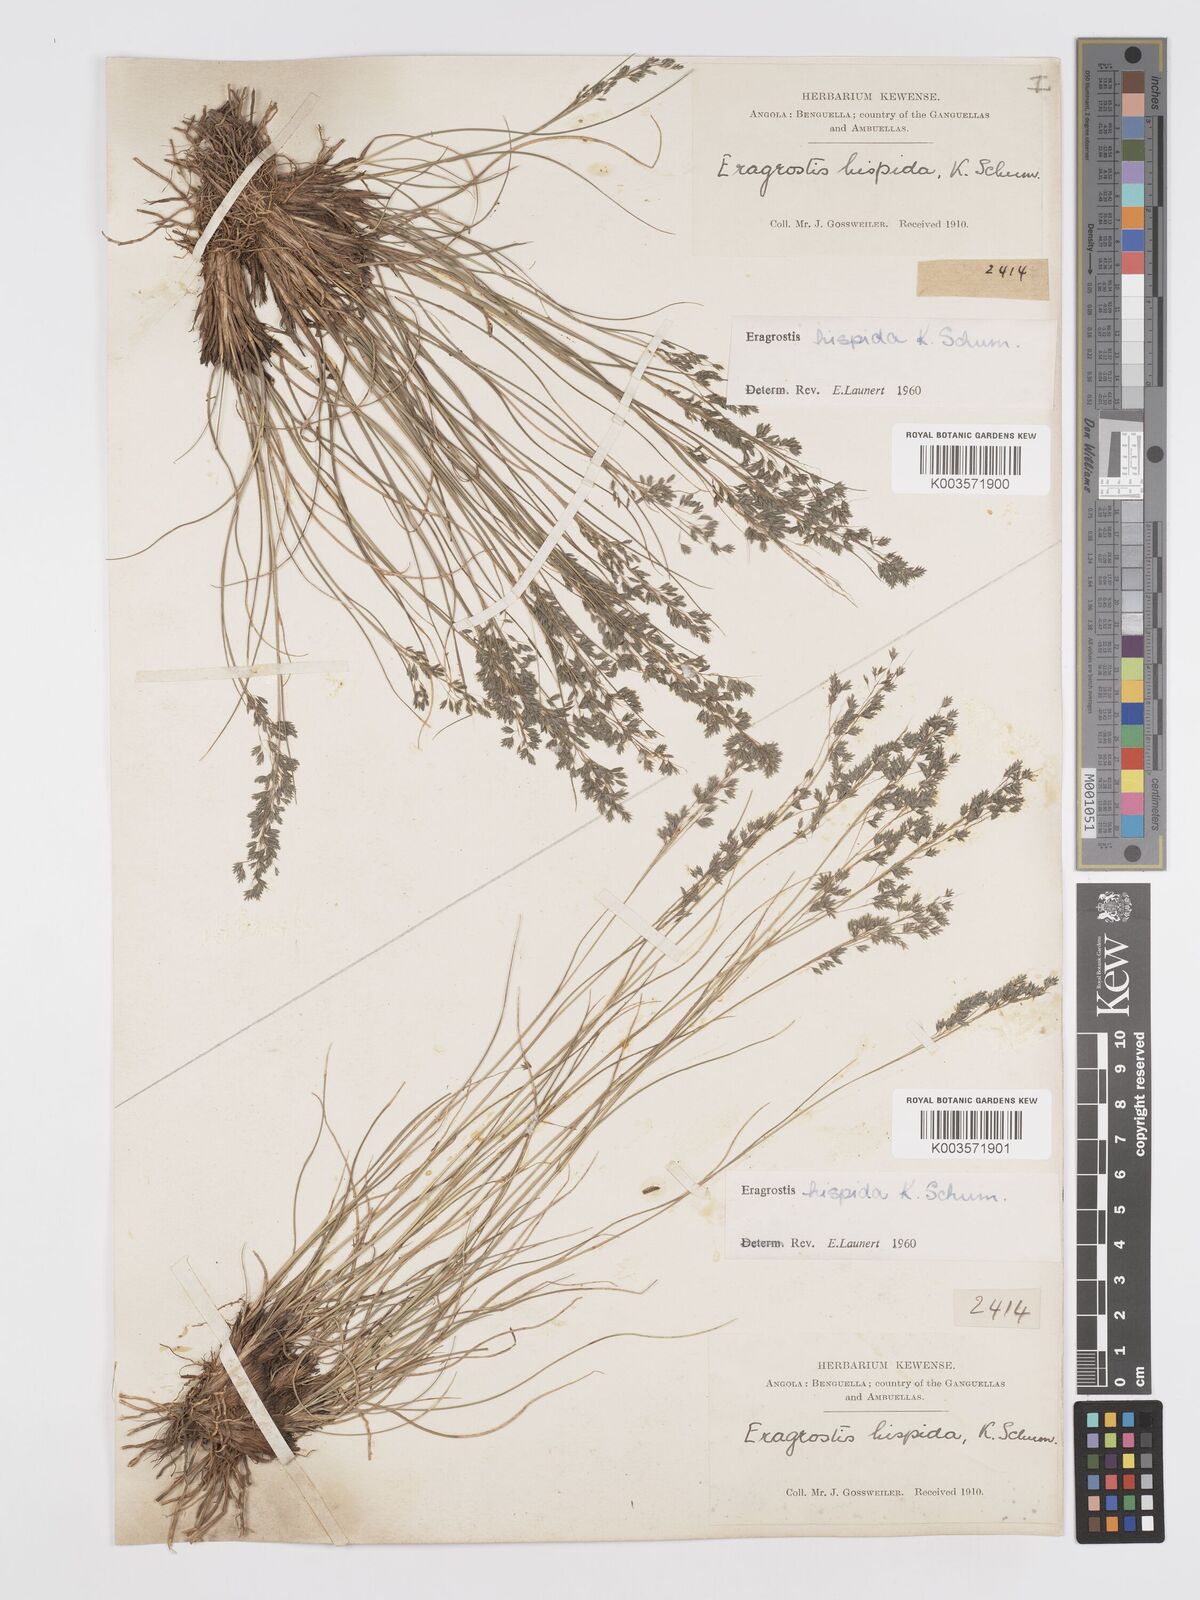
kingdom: Plantae
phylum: Tracheophyta
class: Liliopsida
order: Poales
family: Poaceae
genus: Eragrostis
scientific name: Eragrostis hispida
